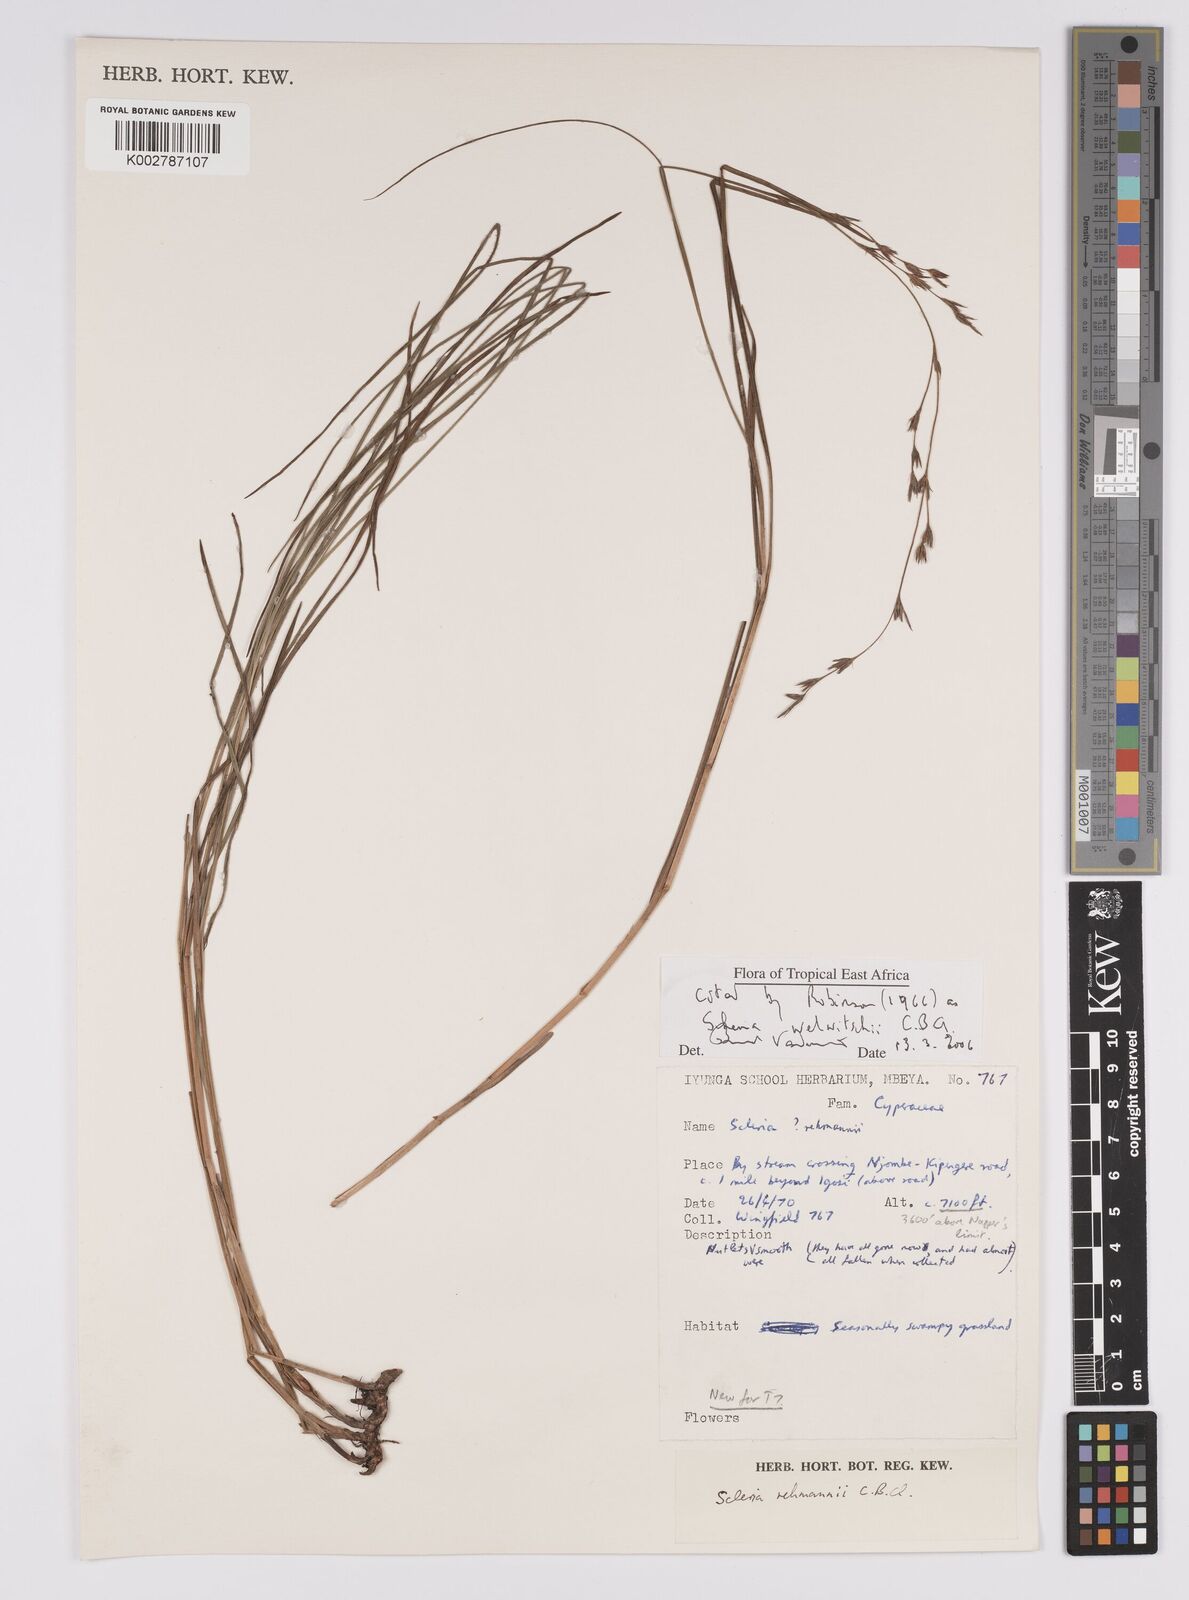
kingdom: Plantae
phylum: Tracheophyta
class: Liliopsida
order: Poales
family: Cyperaceae
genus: Scleria
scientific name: Scleria welwitschii
